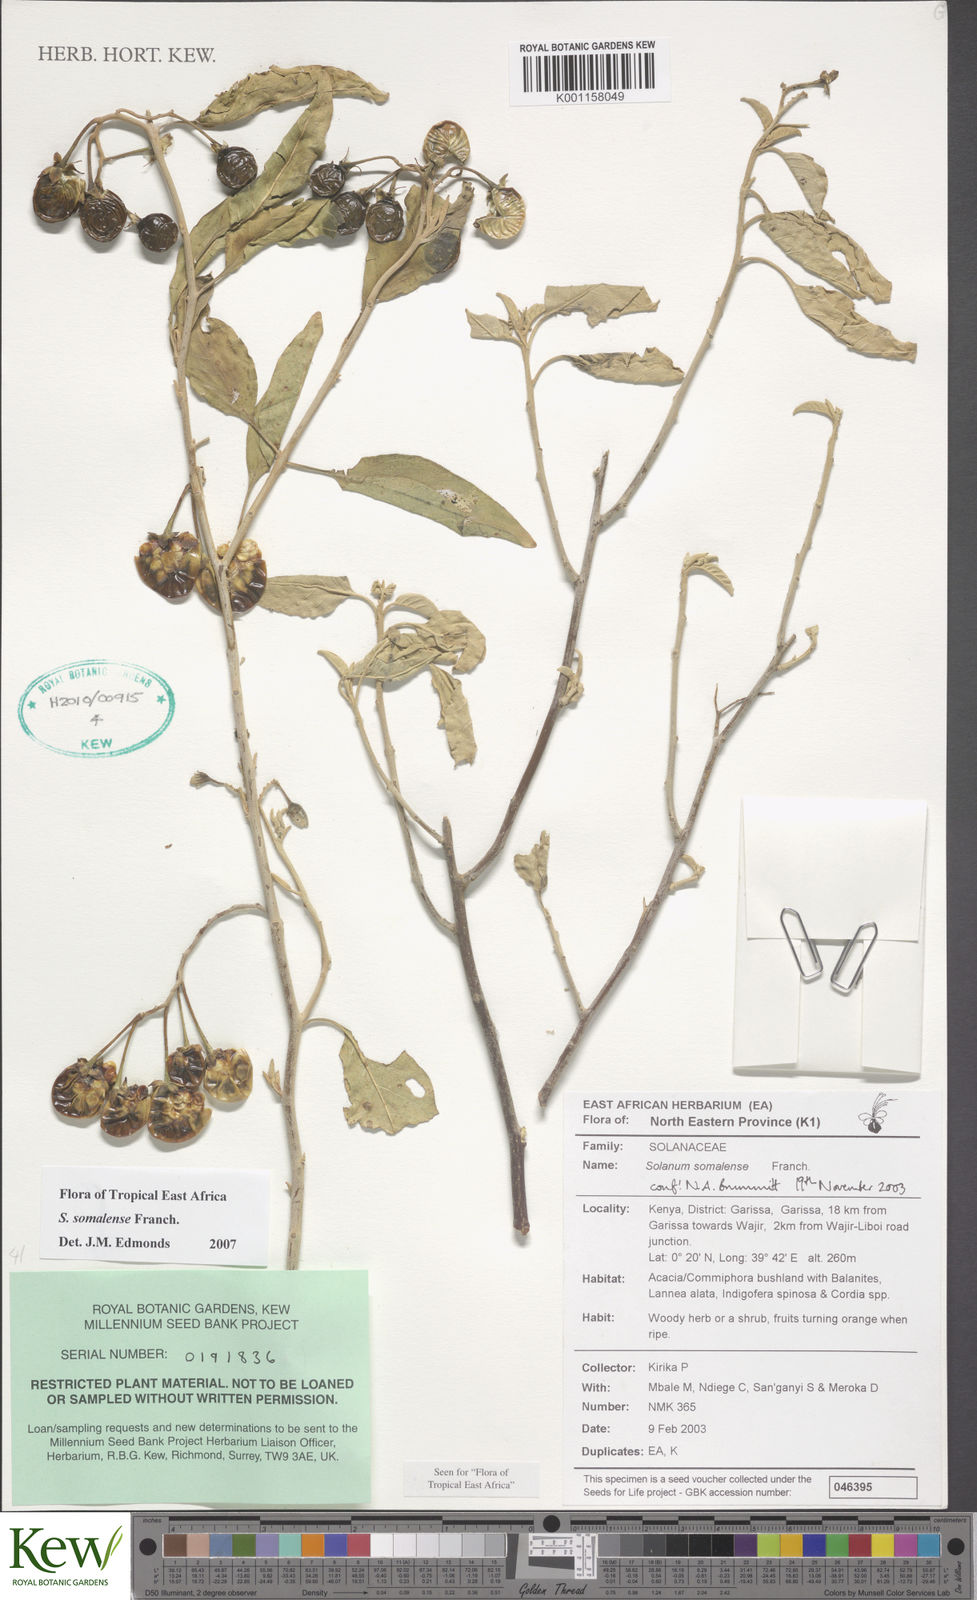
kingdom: Plantae
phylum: Tracheophyta
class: Magnoliopsida
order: Solanales
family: Solanaceae
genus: Solanum
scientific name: Solanum somalense
